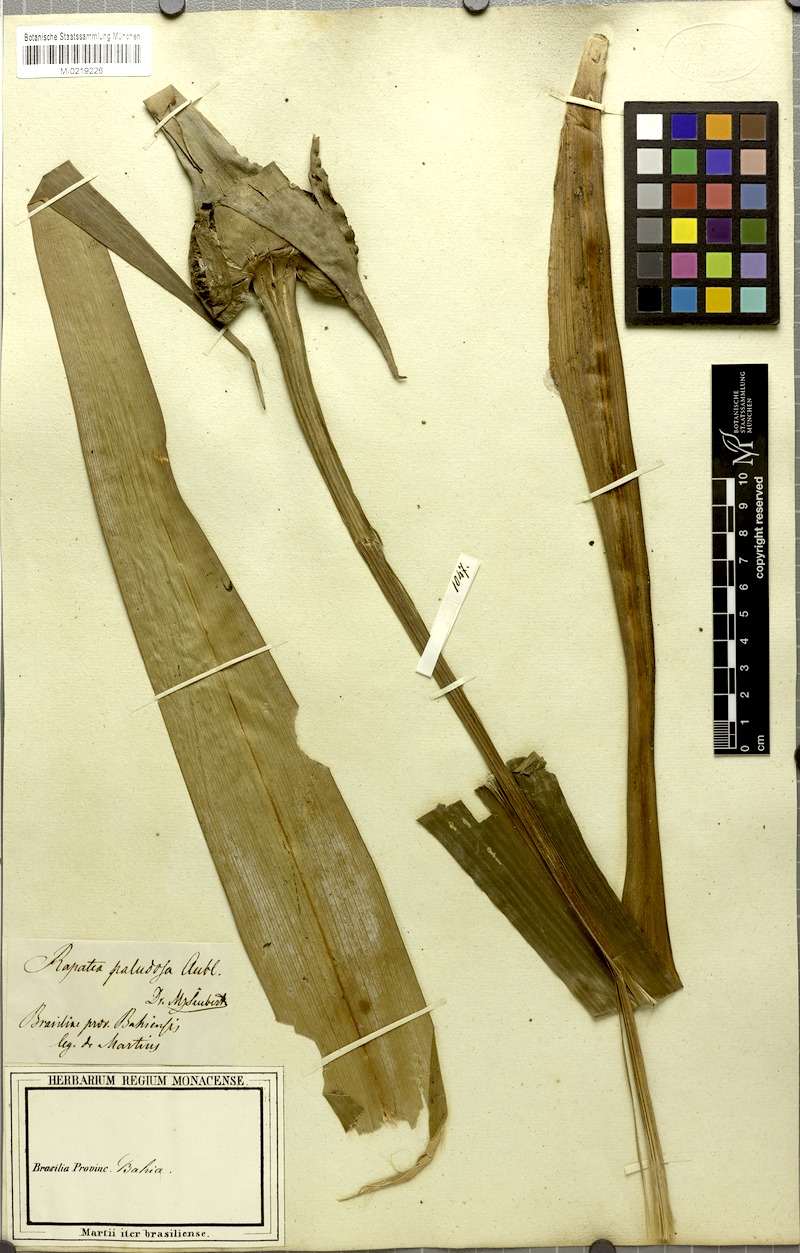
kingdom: Plantae
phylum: Tracheophyta
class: Liliopsida
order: Poales
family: Rapateaceae
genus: Rapatea
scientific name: Rapatea paludosa
